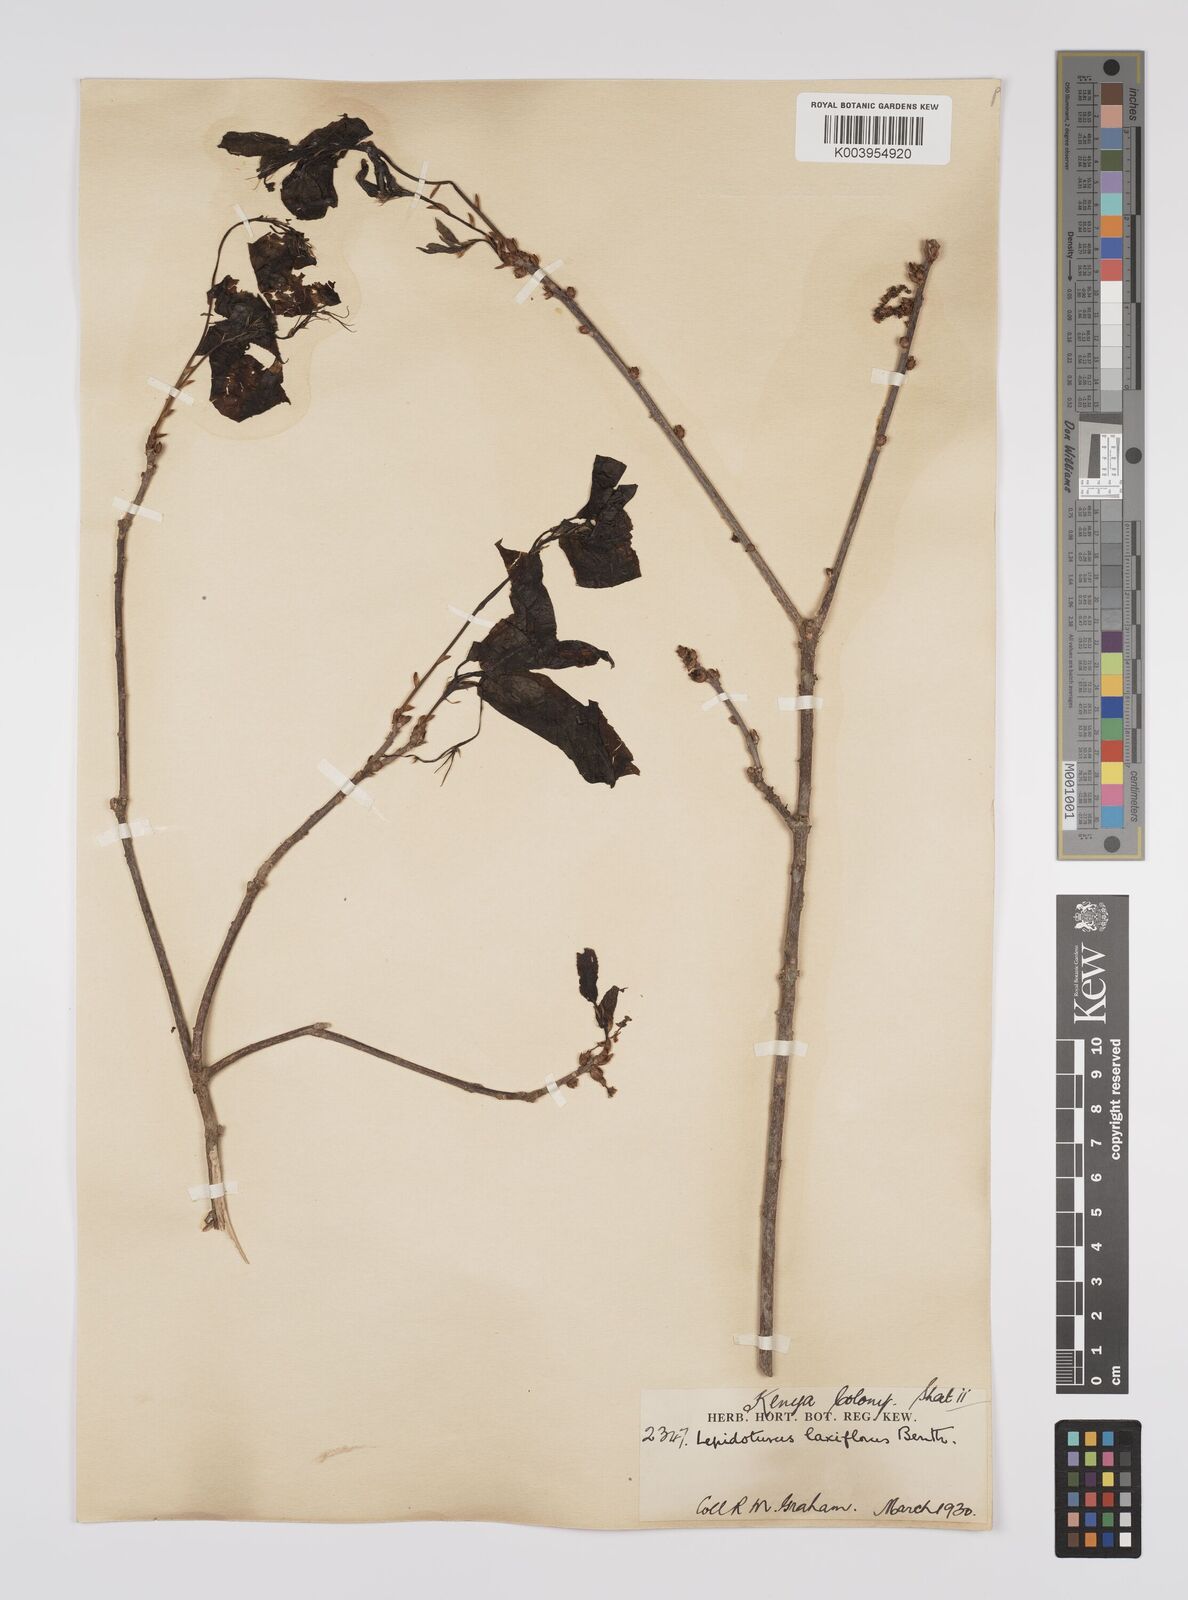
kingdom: Plantae
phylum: Tracheophyta
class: Magnoliopsida
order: Malpighiales
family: Euphorbiaceae
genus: Alchornea
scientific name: Alchornea laxiflora
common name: Lowveld bead-string
